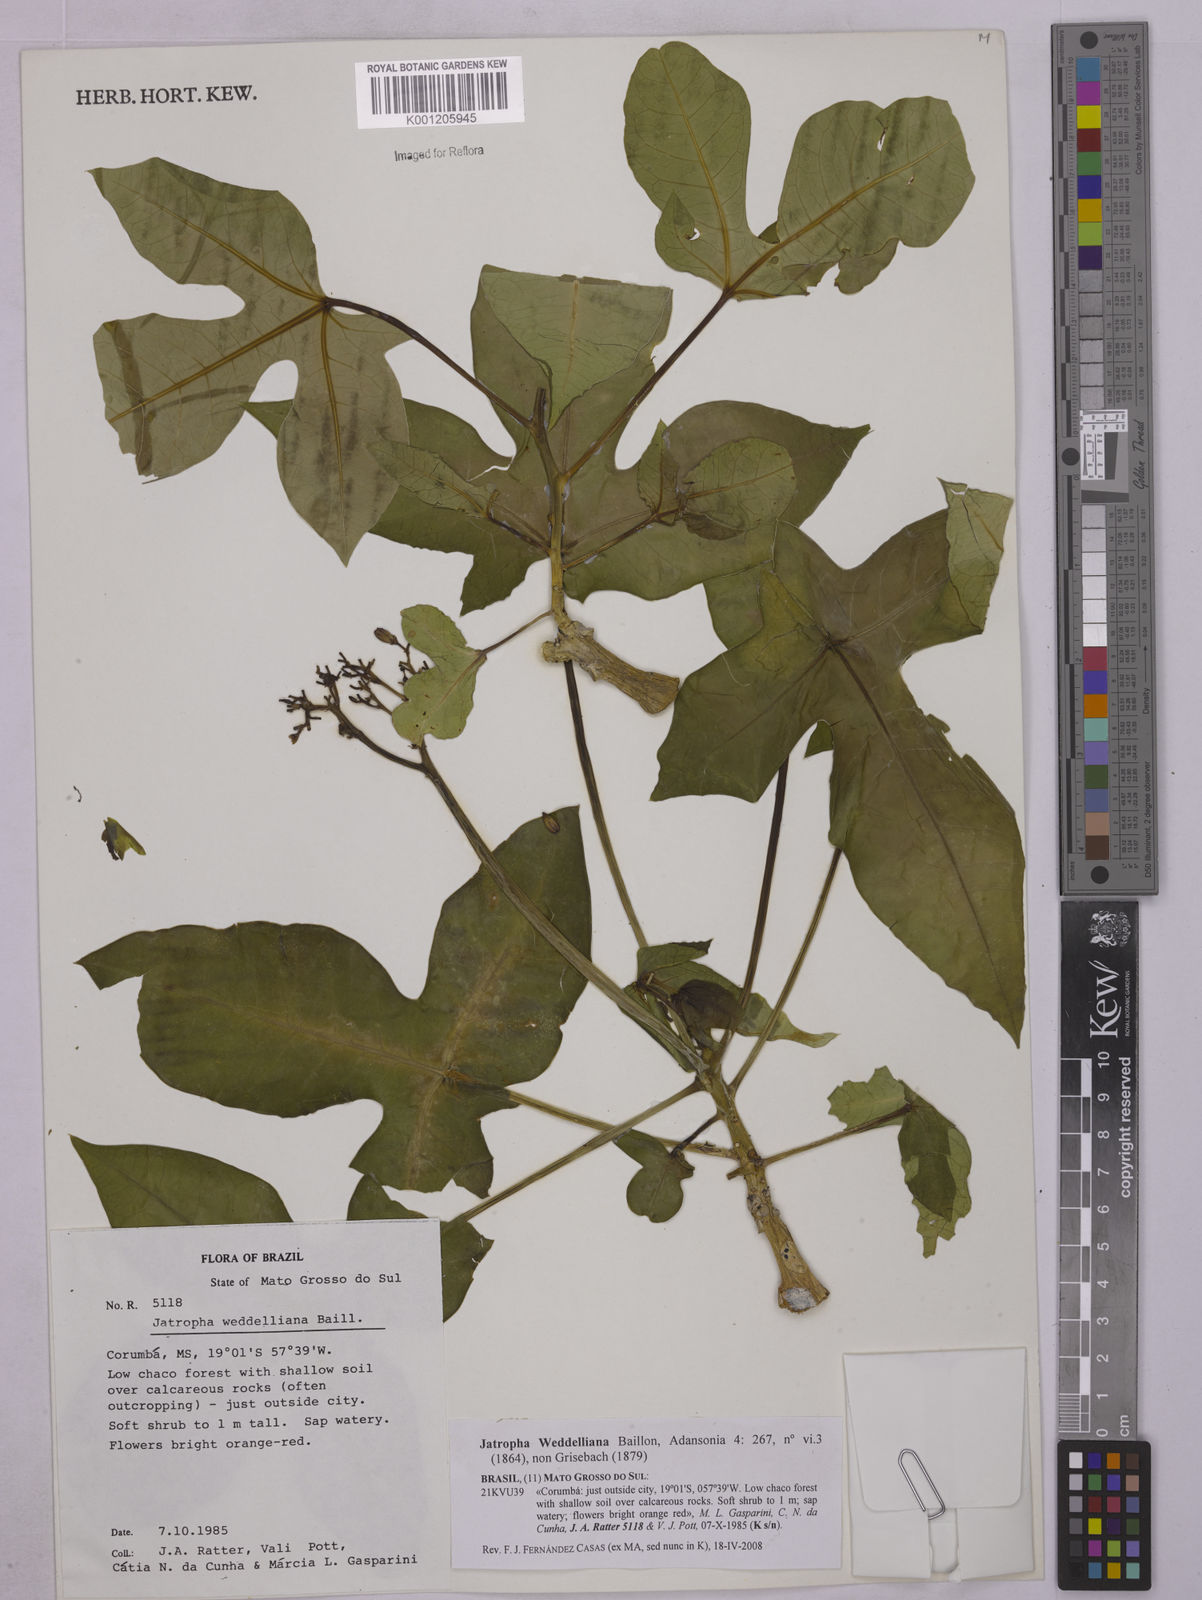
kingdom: Plantae
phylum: Tracheophyta
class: Magnoliopsida
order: Malpighiales
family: Euphorbiaceae
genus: Jatropha
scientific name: Jatropha weddeliana
